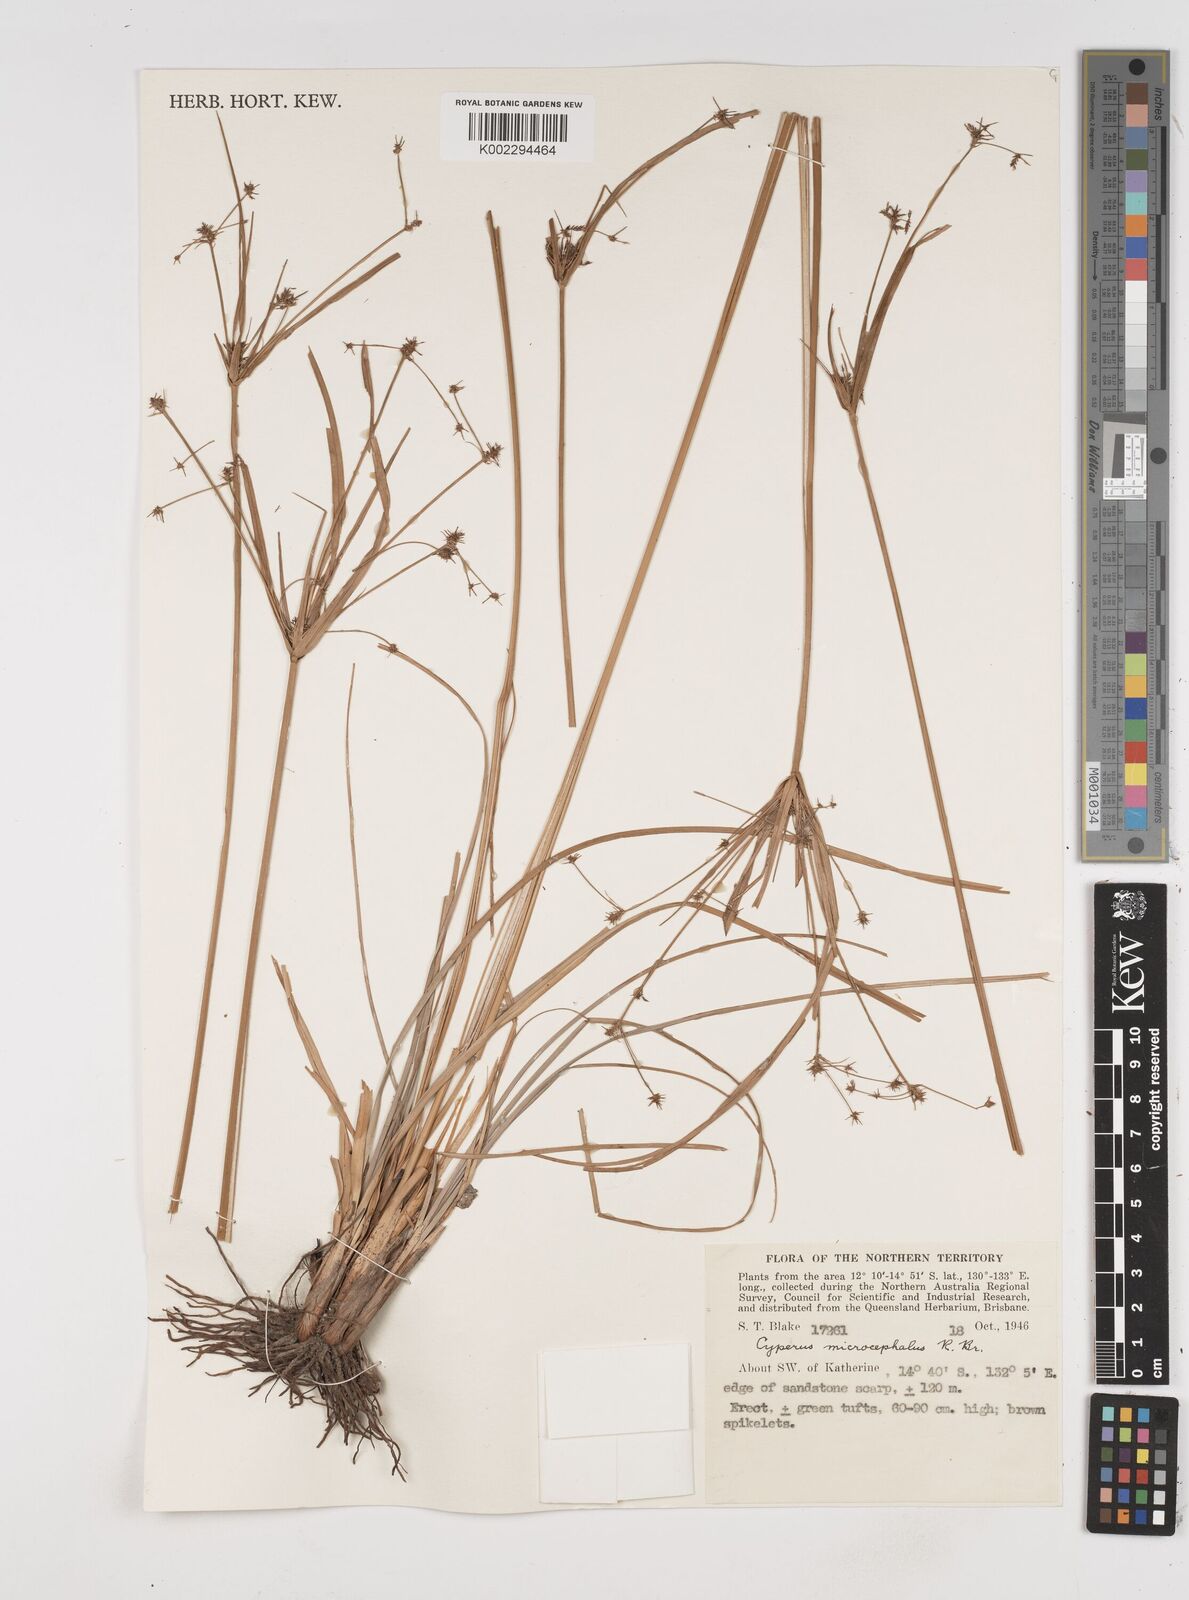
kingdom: Plantae
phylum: Tracheophyta
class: Liliopsida
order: Poales
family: Cyperaceae
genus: Cyperus
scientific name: Cyperus microcephalus
